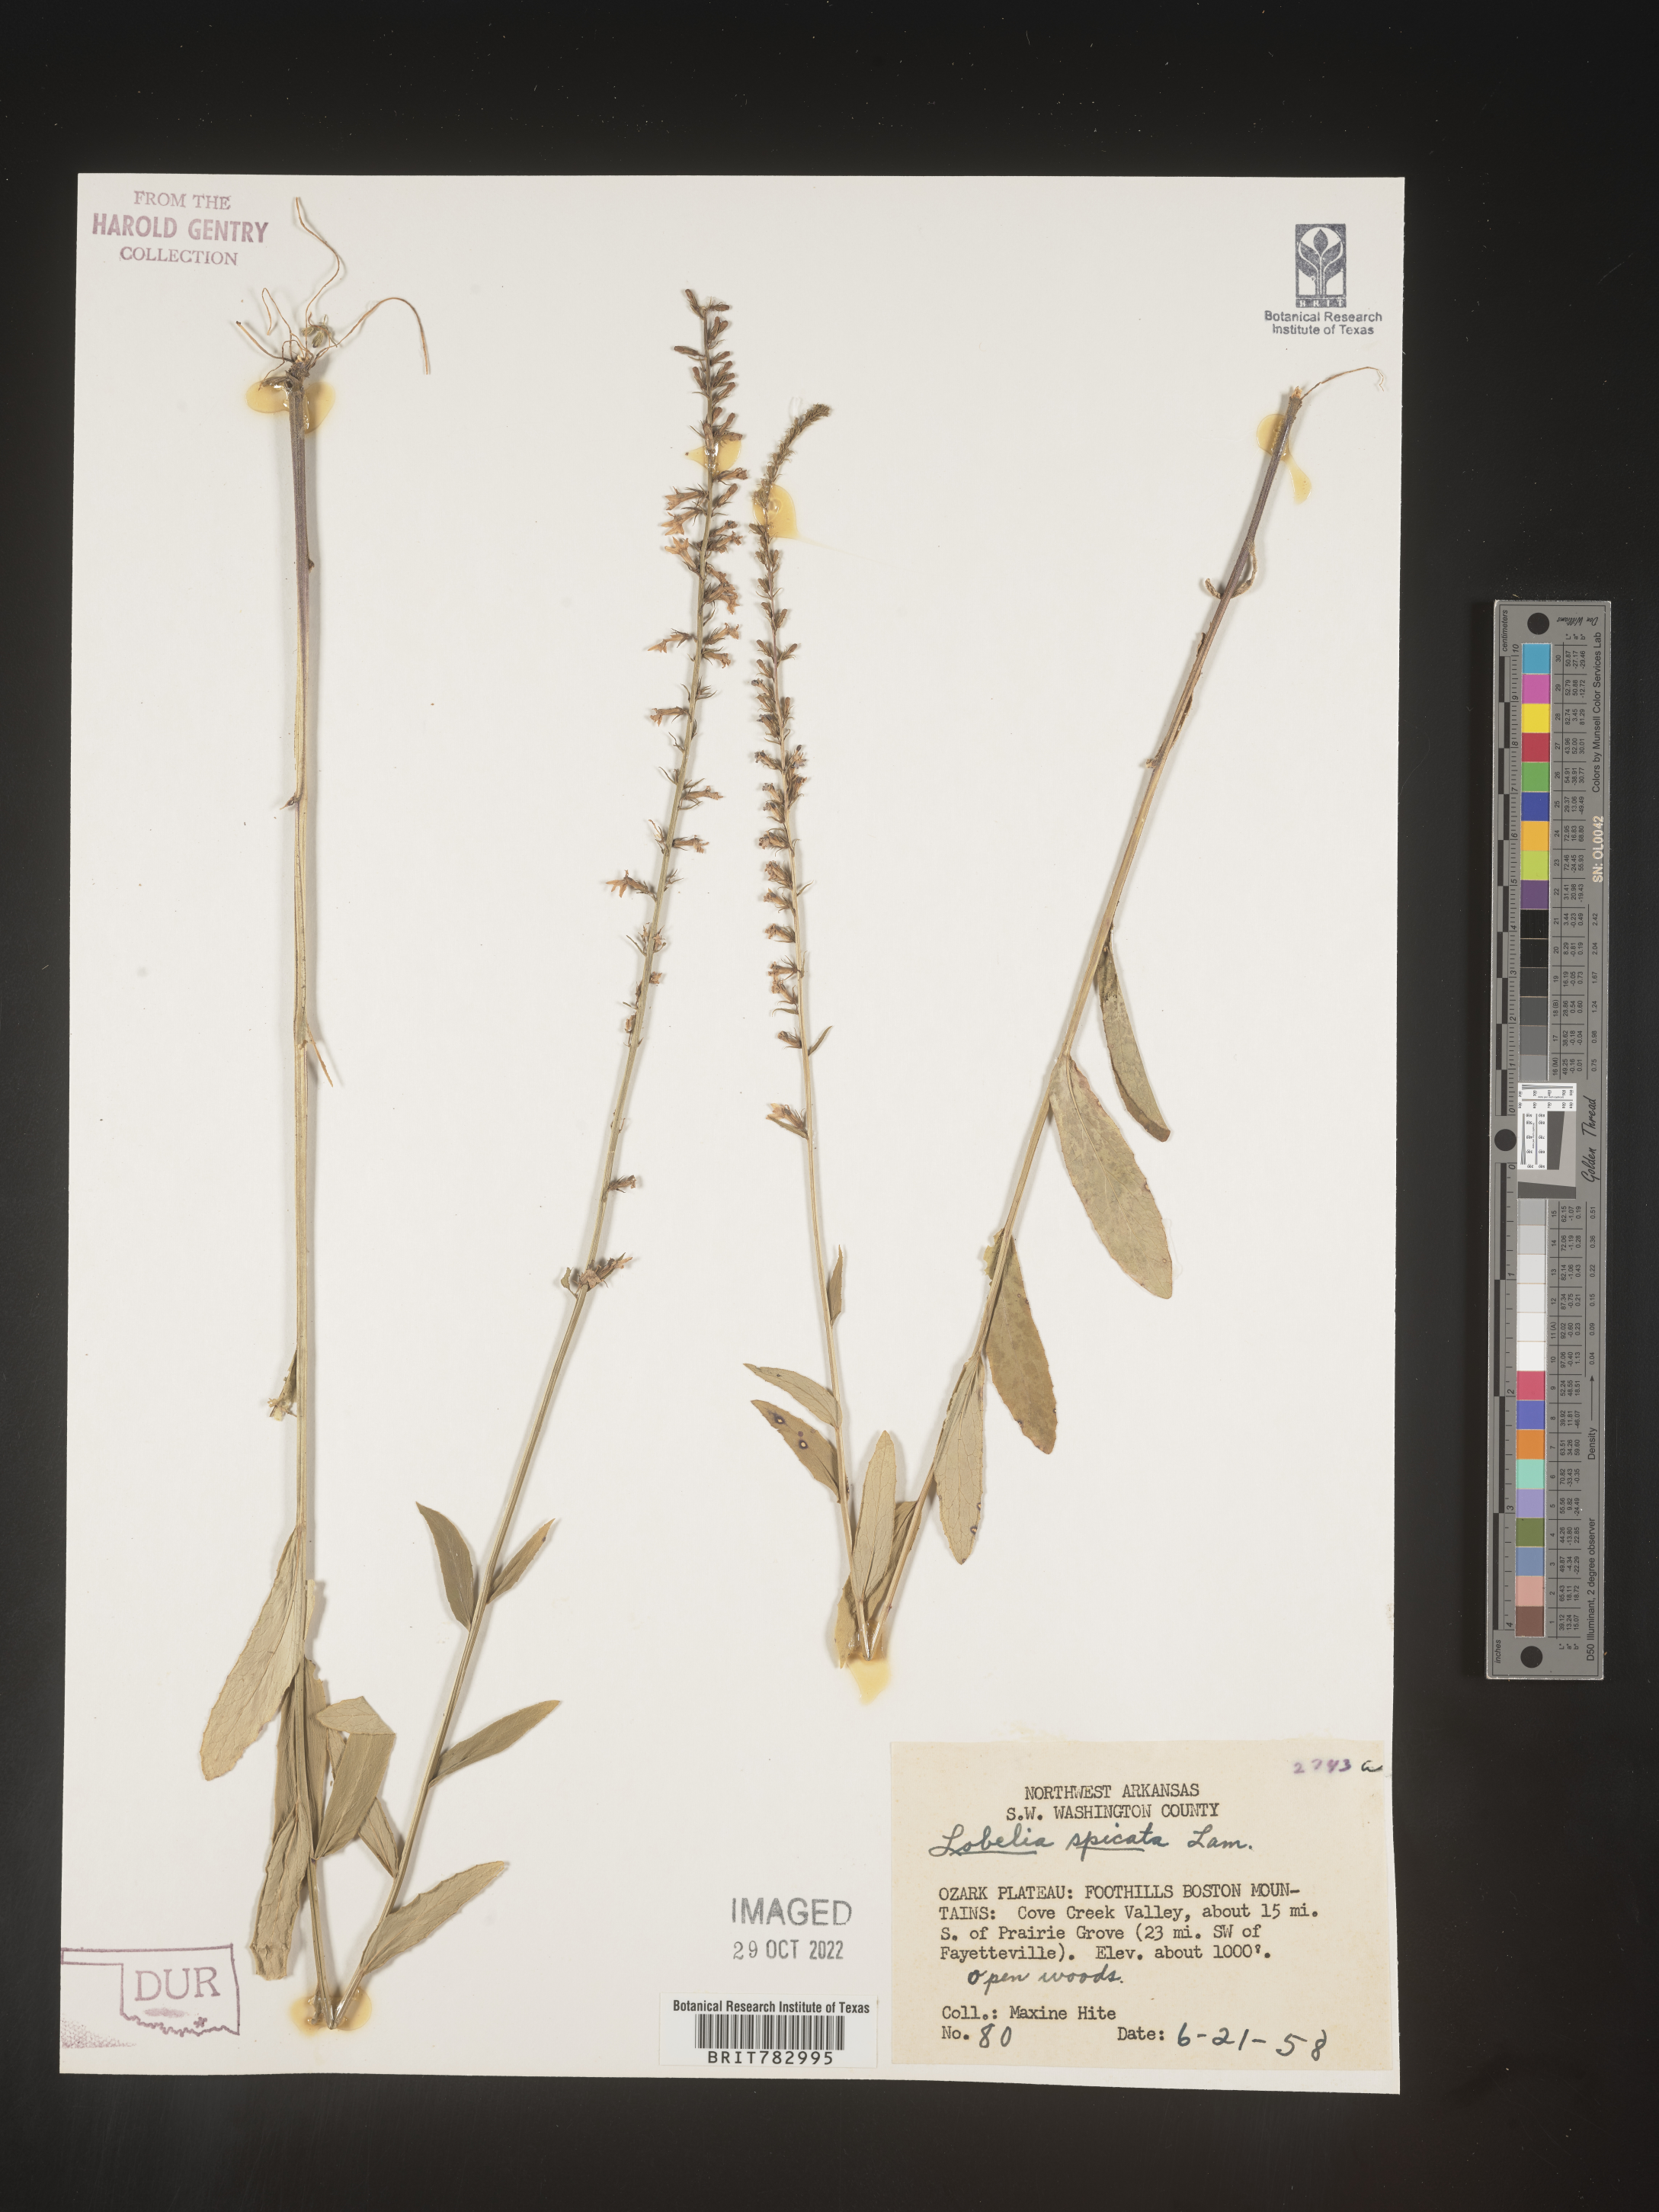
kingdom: Plantae
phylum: Tracheophyta
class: Magnoliopsida
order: Asterales
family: Campanulaceae
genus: Lobelia
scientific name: Lobelia spicata
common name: Pale-spike lobelia
